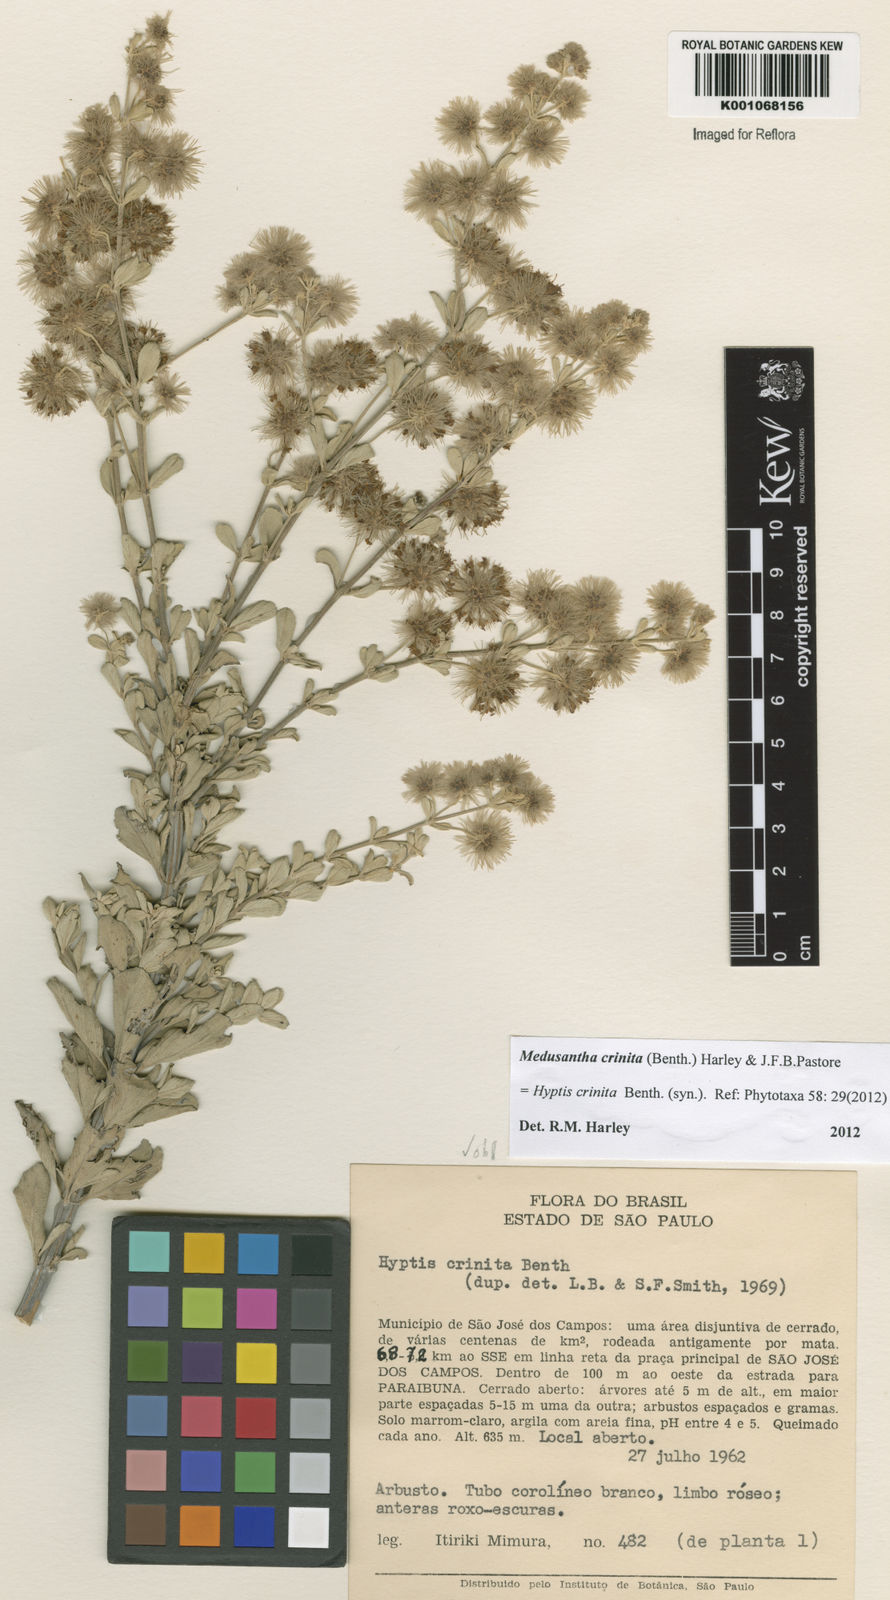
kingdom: Plantae
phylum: Tracheophyta
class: Magnoliopsida
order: Lamiales
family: Lamiaceae
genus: Medusantha
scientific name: Medusantha crinita
